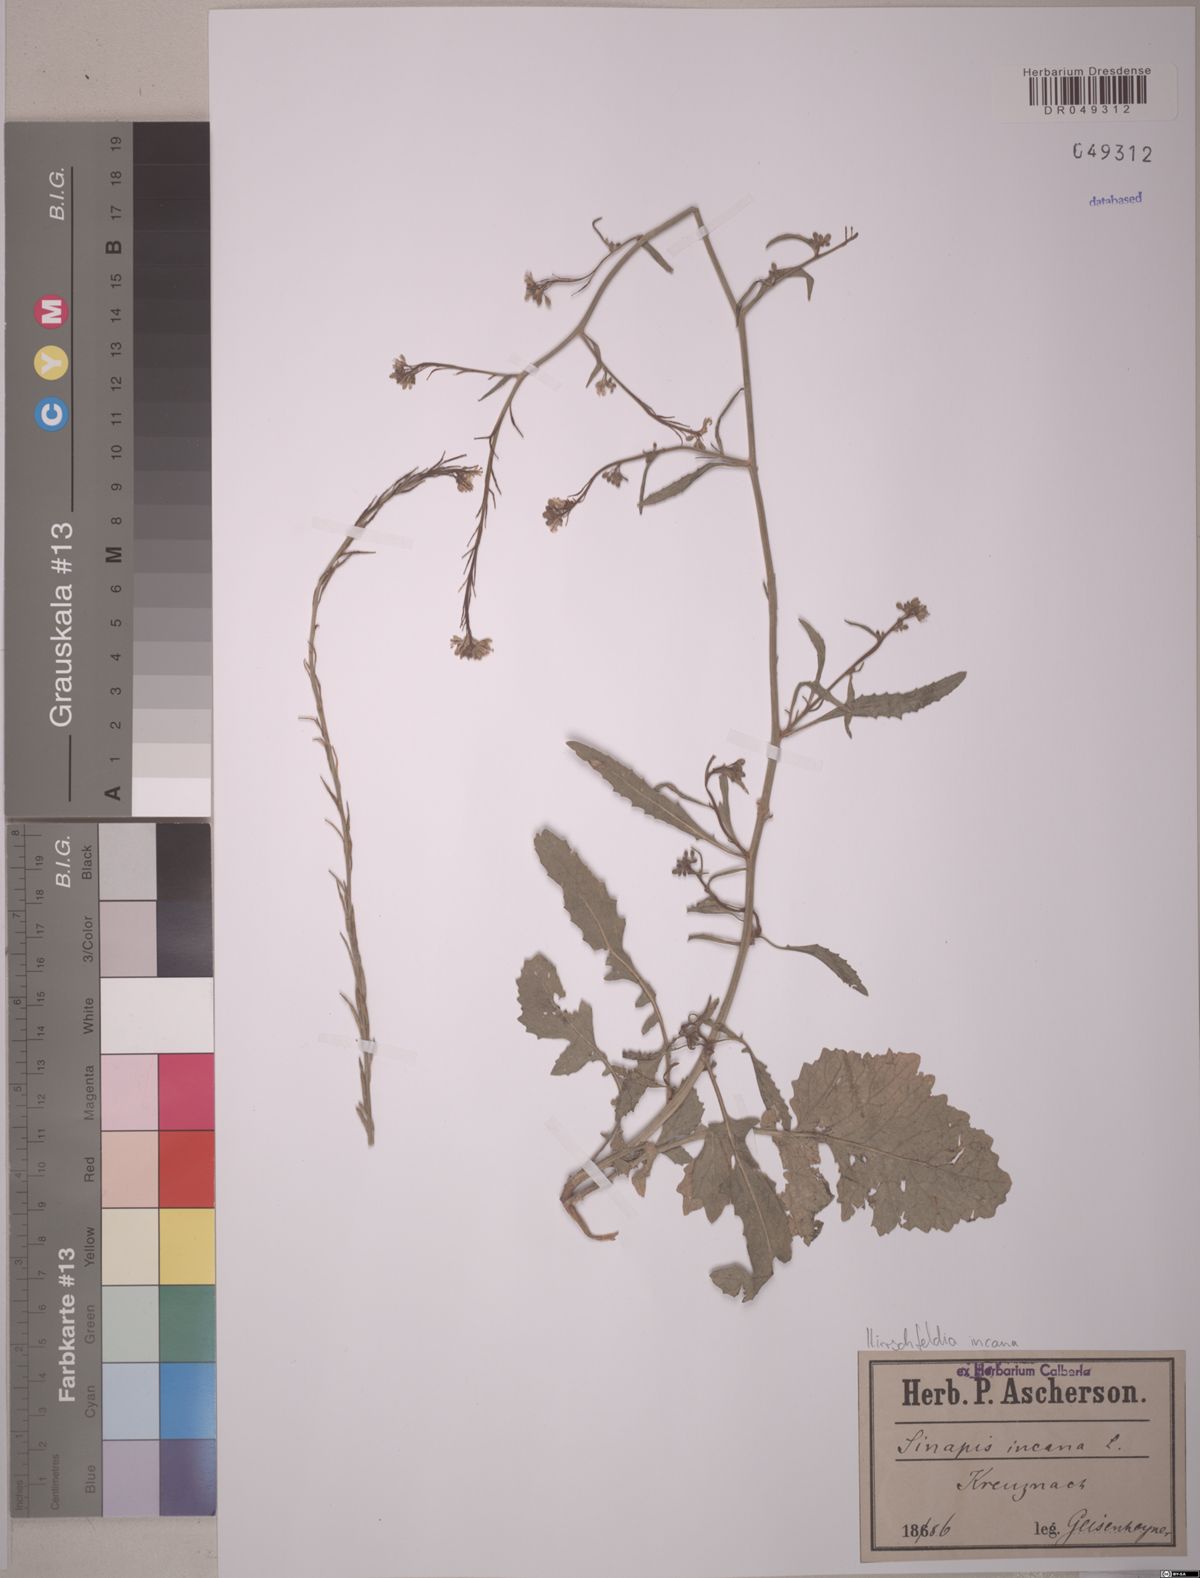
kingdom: Plantae
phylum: Tracheophyta
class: Magnoliopsida
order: Brassicales
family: Brassicaceae
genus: Hirschfeldia
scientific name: Hirschfeldia incana
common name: Hoary mustard
